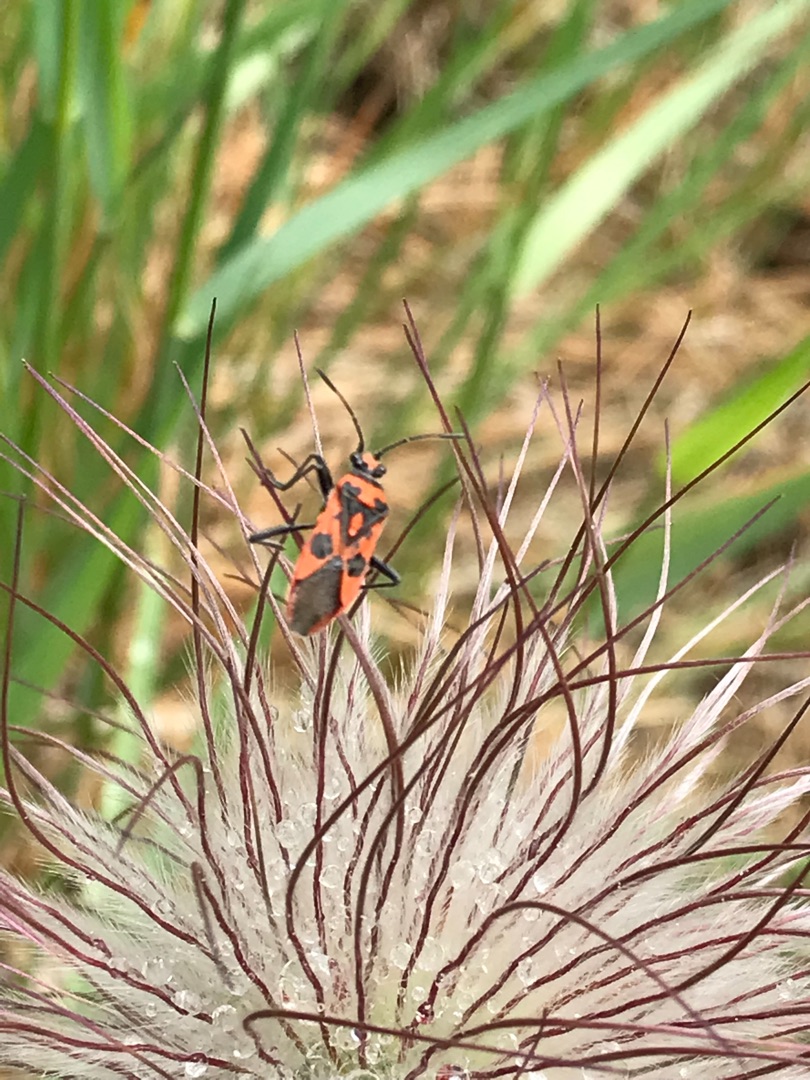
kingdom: Animalia
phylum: Arthropoda
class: Insecta
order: Hemiptera
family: Rhopalidae
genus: Corizus
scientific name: Corizus hyoscyami
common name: Rød kanttæge
